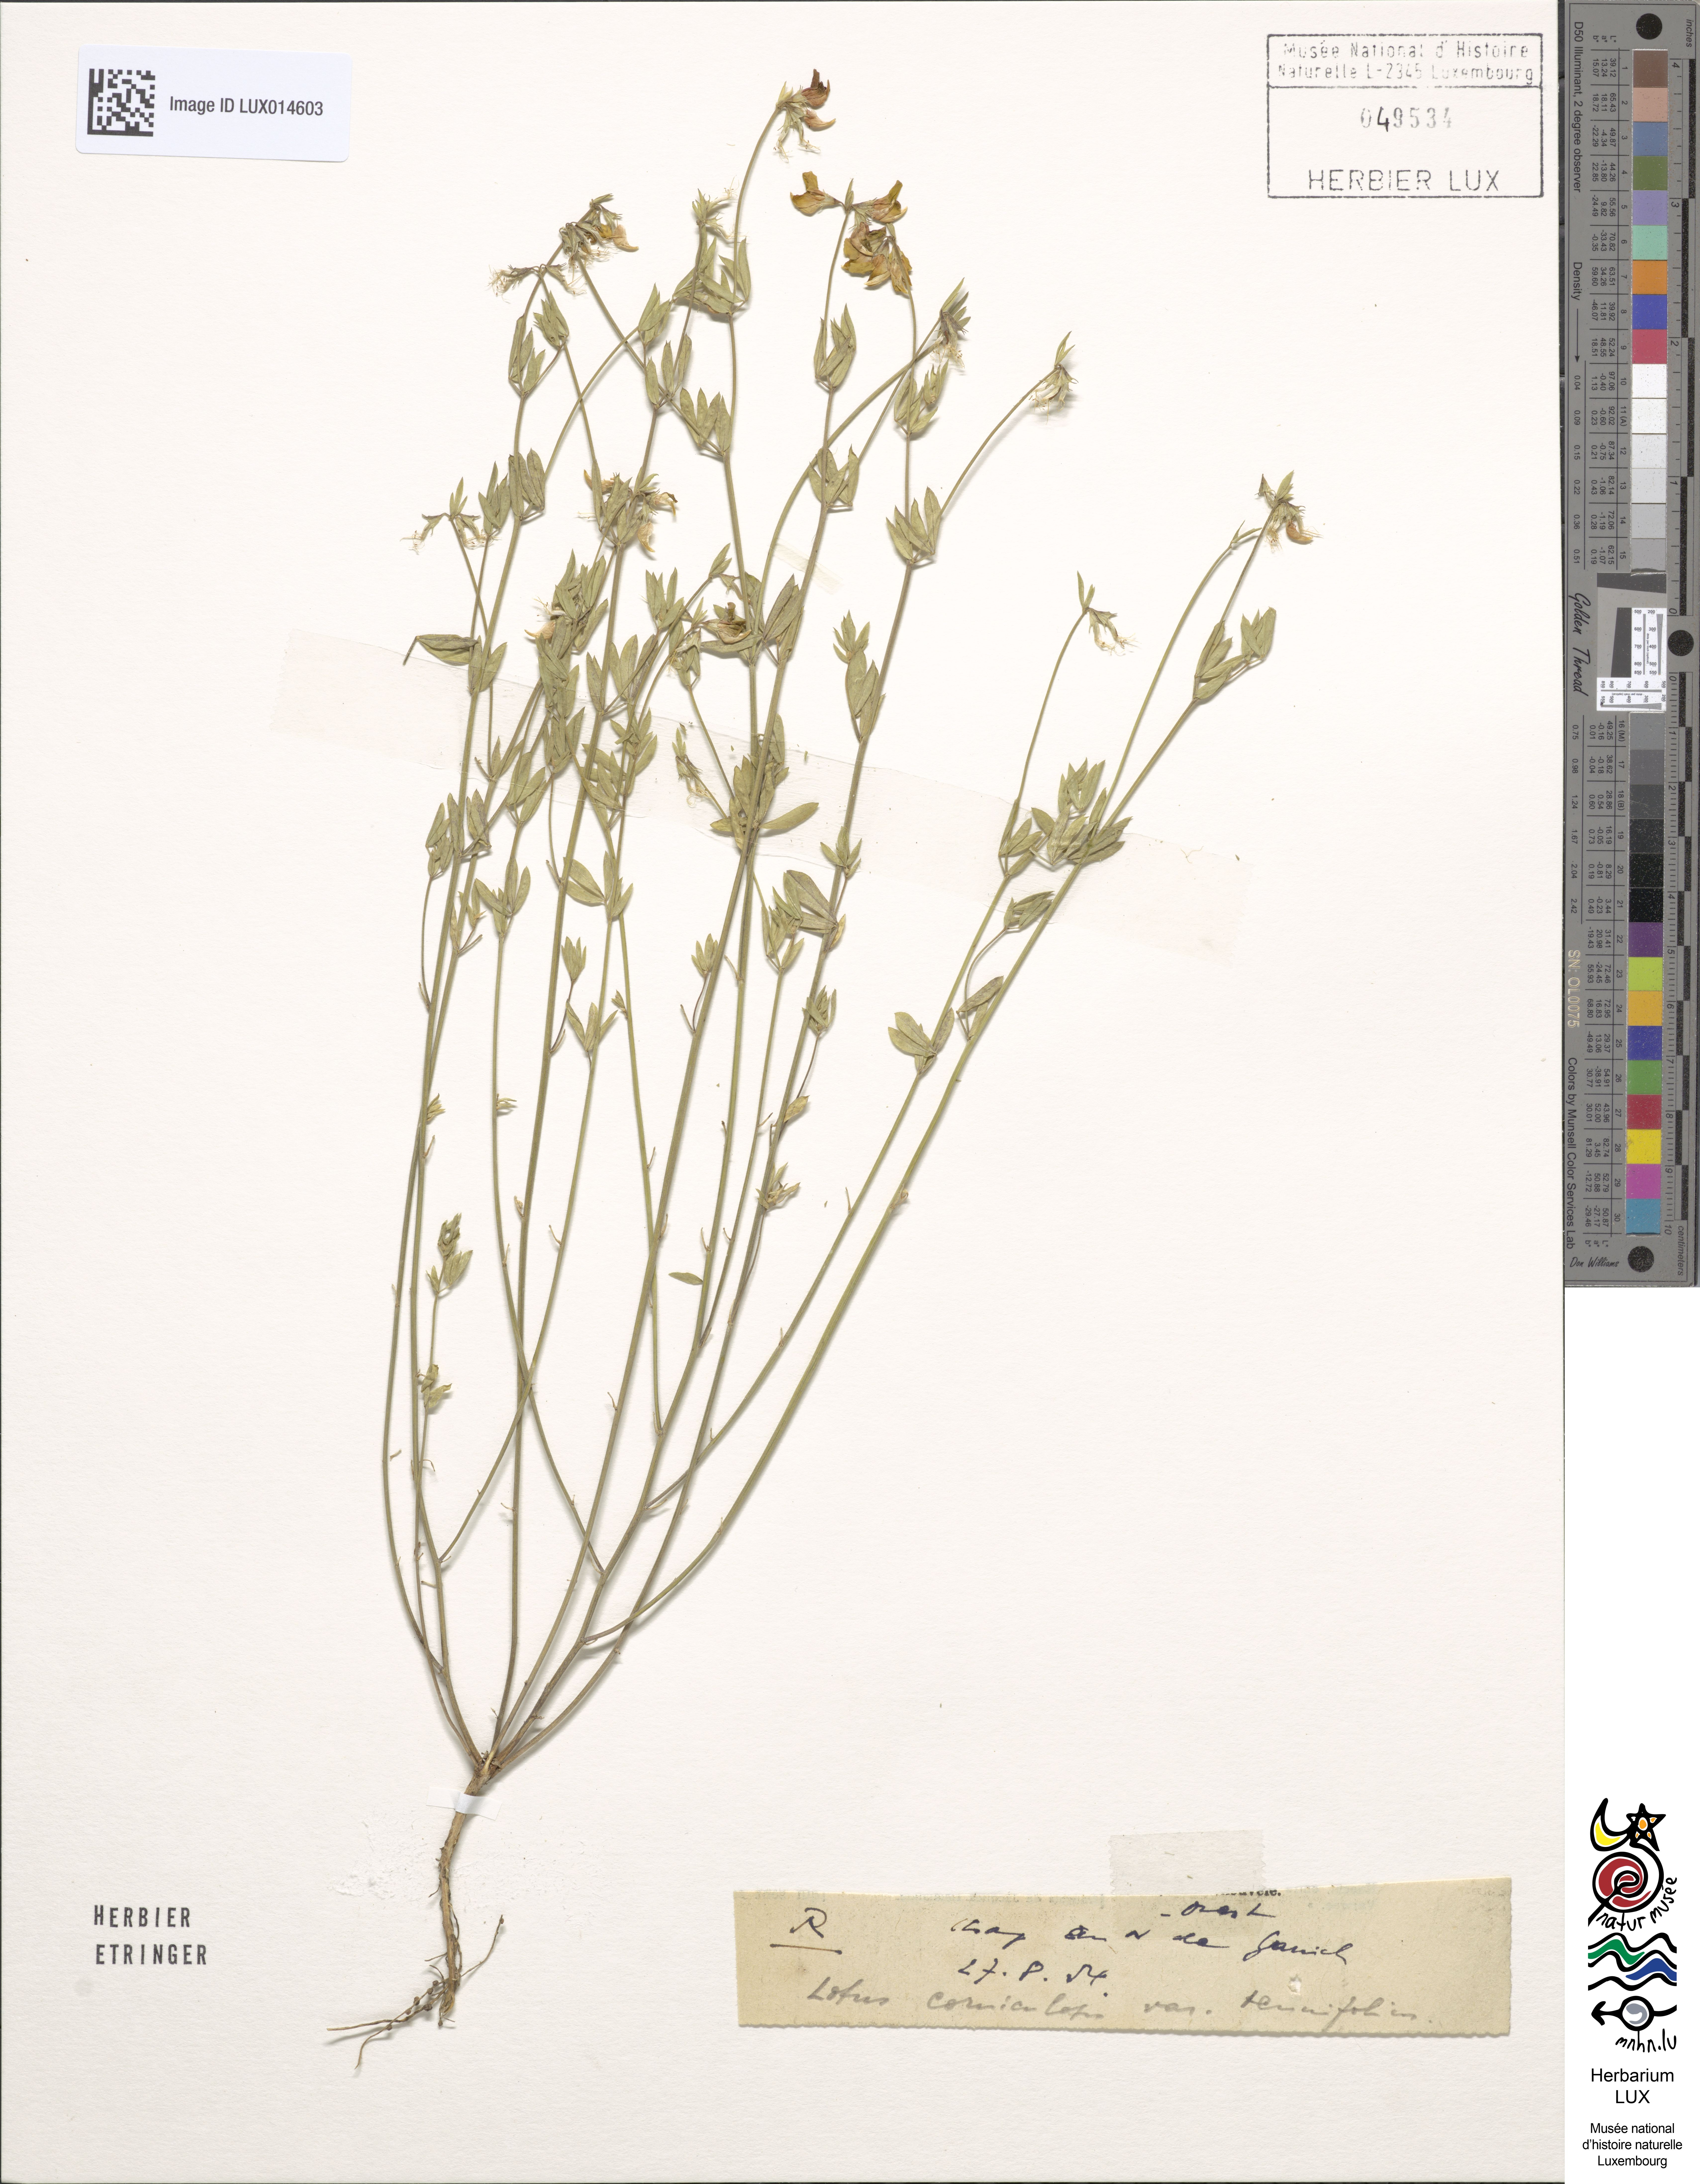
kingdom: Plantae
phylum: Tracheophyta
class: Magnoliopsida
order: Fabales
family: Fabaceae
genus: Lotus
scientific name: Lotus tenuis
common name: Narrow-leaved bird's-foot-trefoil
